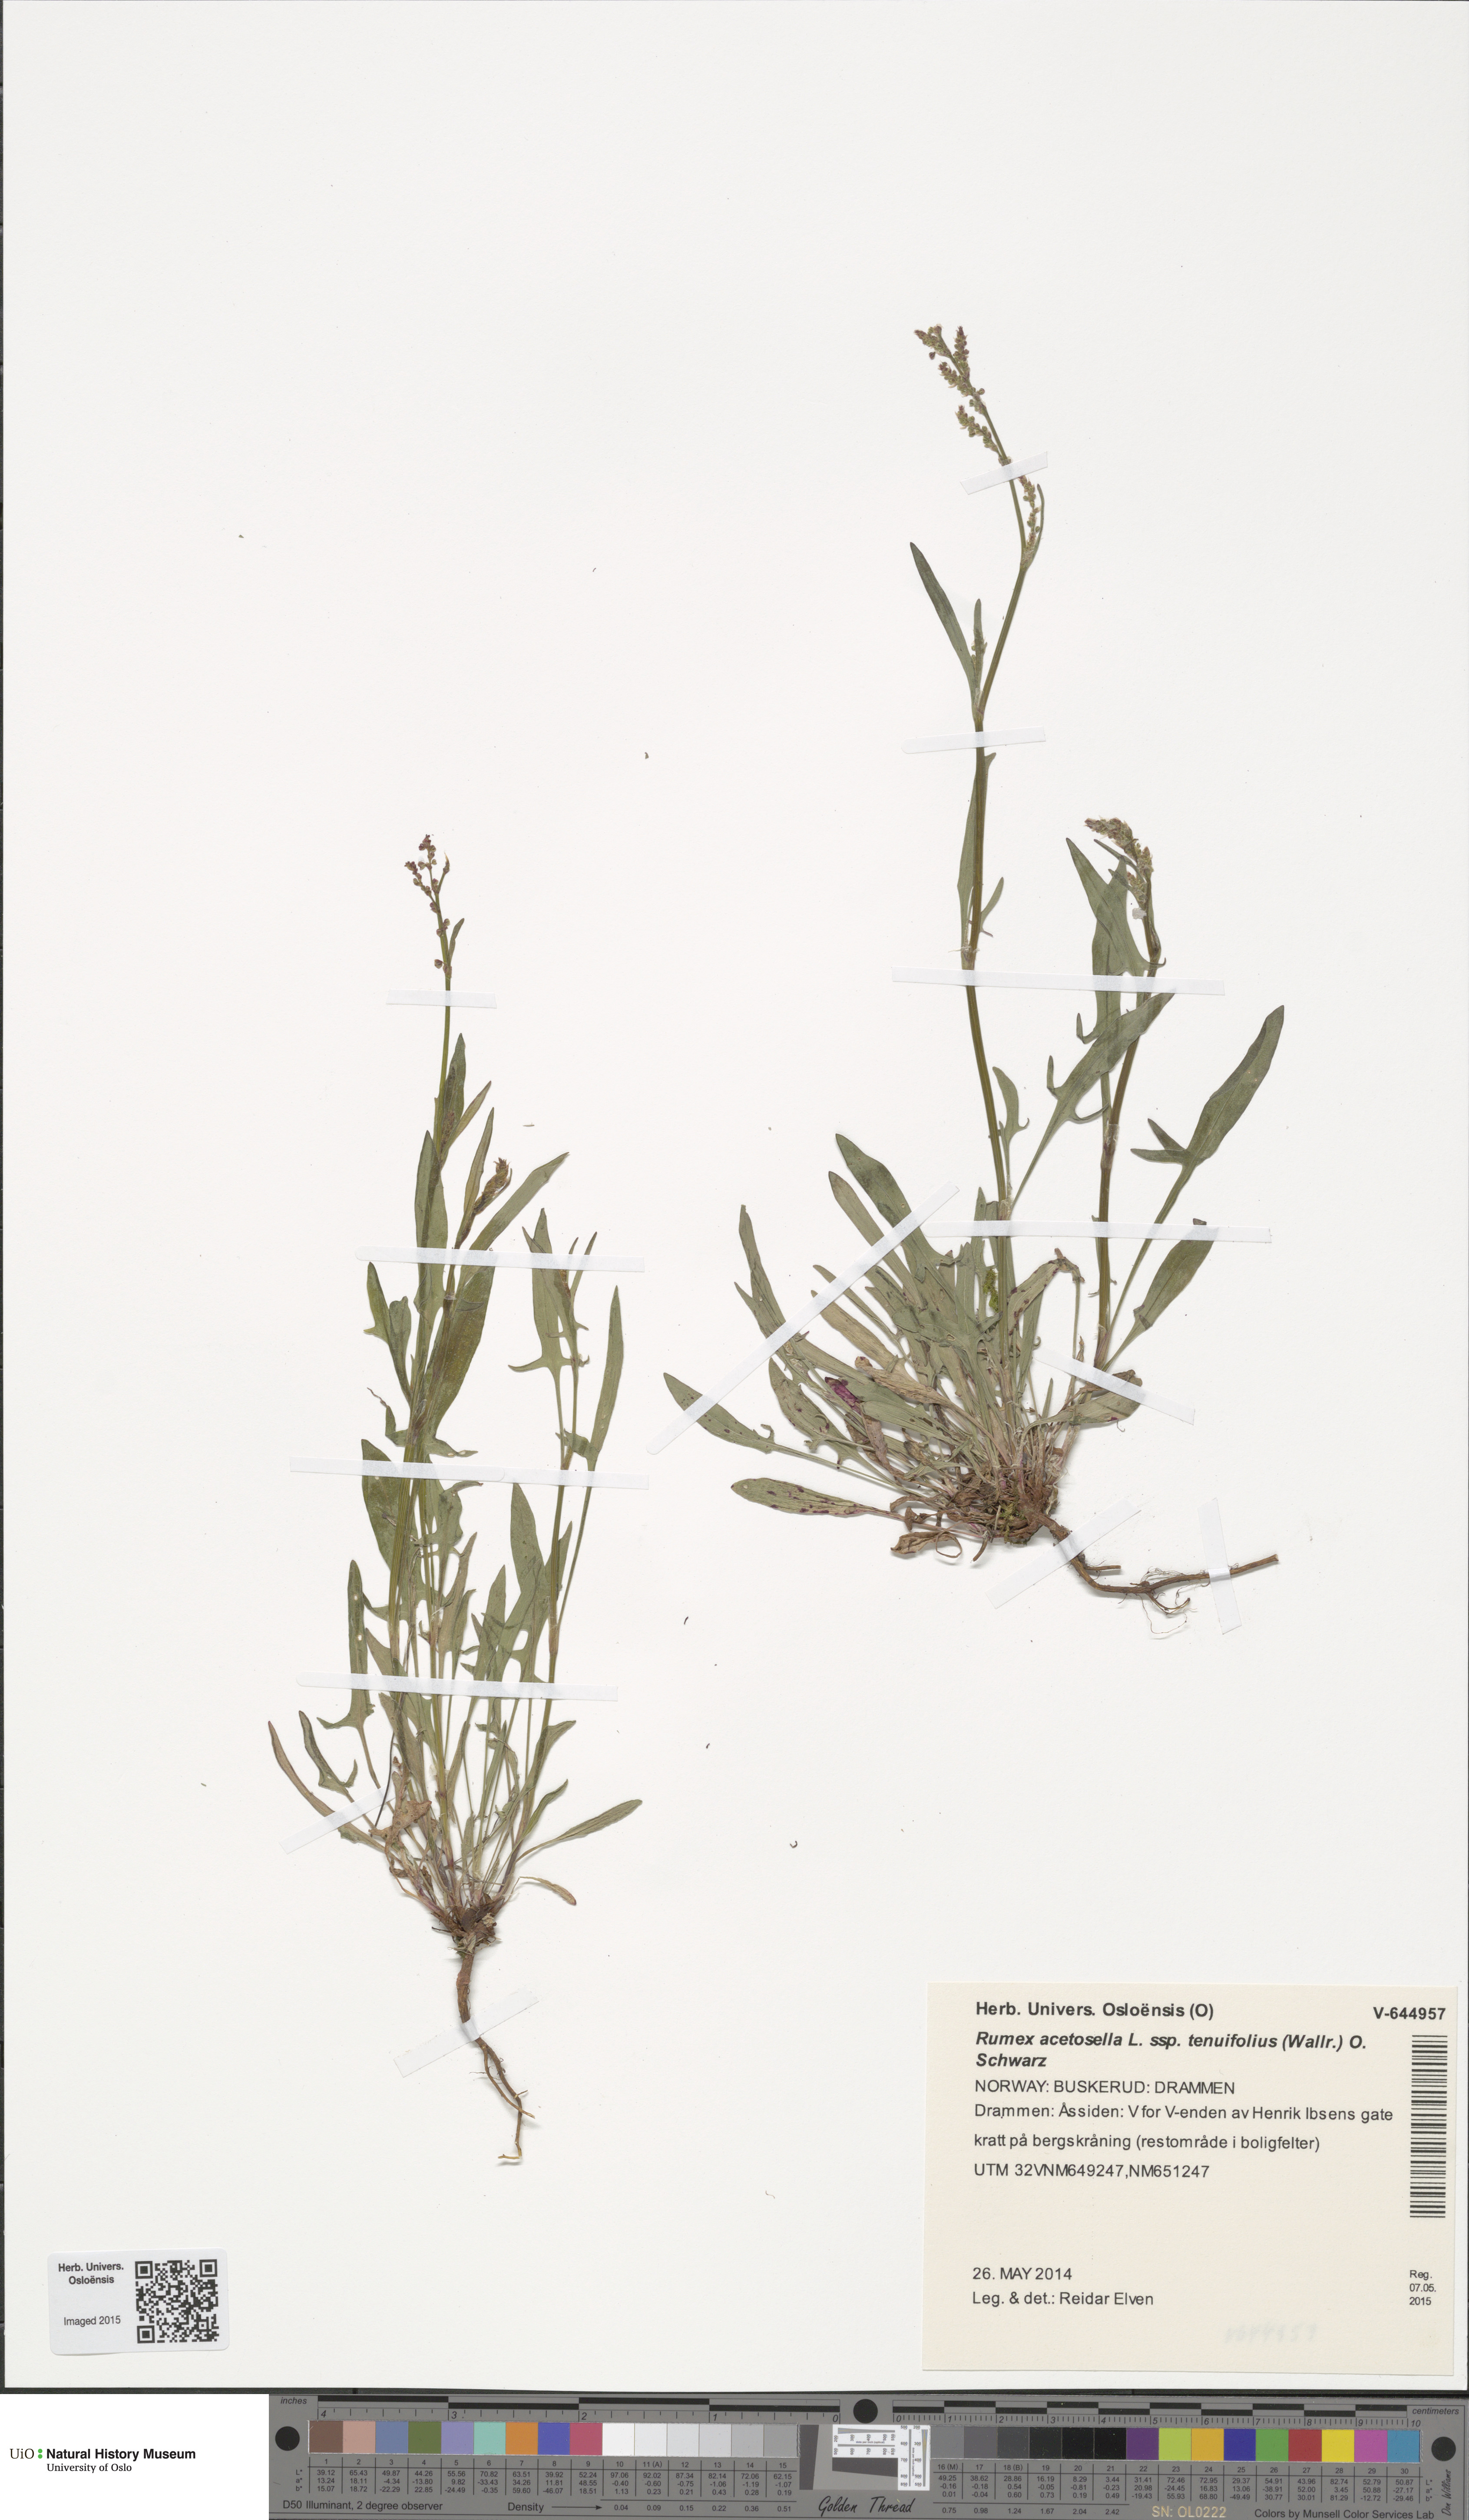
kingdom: Plantae
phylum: Tracheophyta
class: Magnoliopsida
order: Caryophyllales
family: Polygonaceae
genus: Rumex
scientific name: Rumex acetosella
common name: Common sheep sorrel
